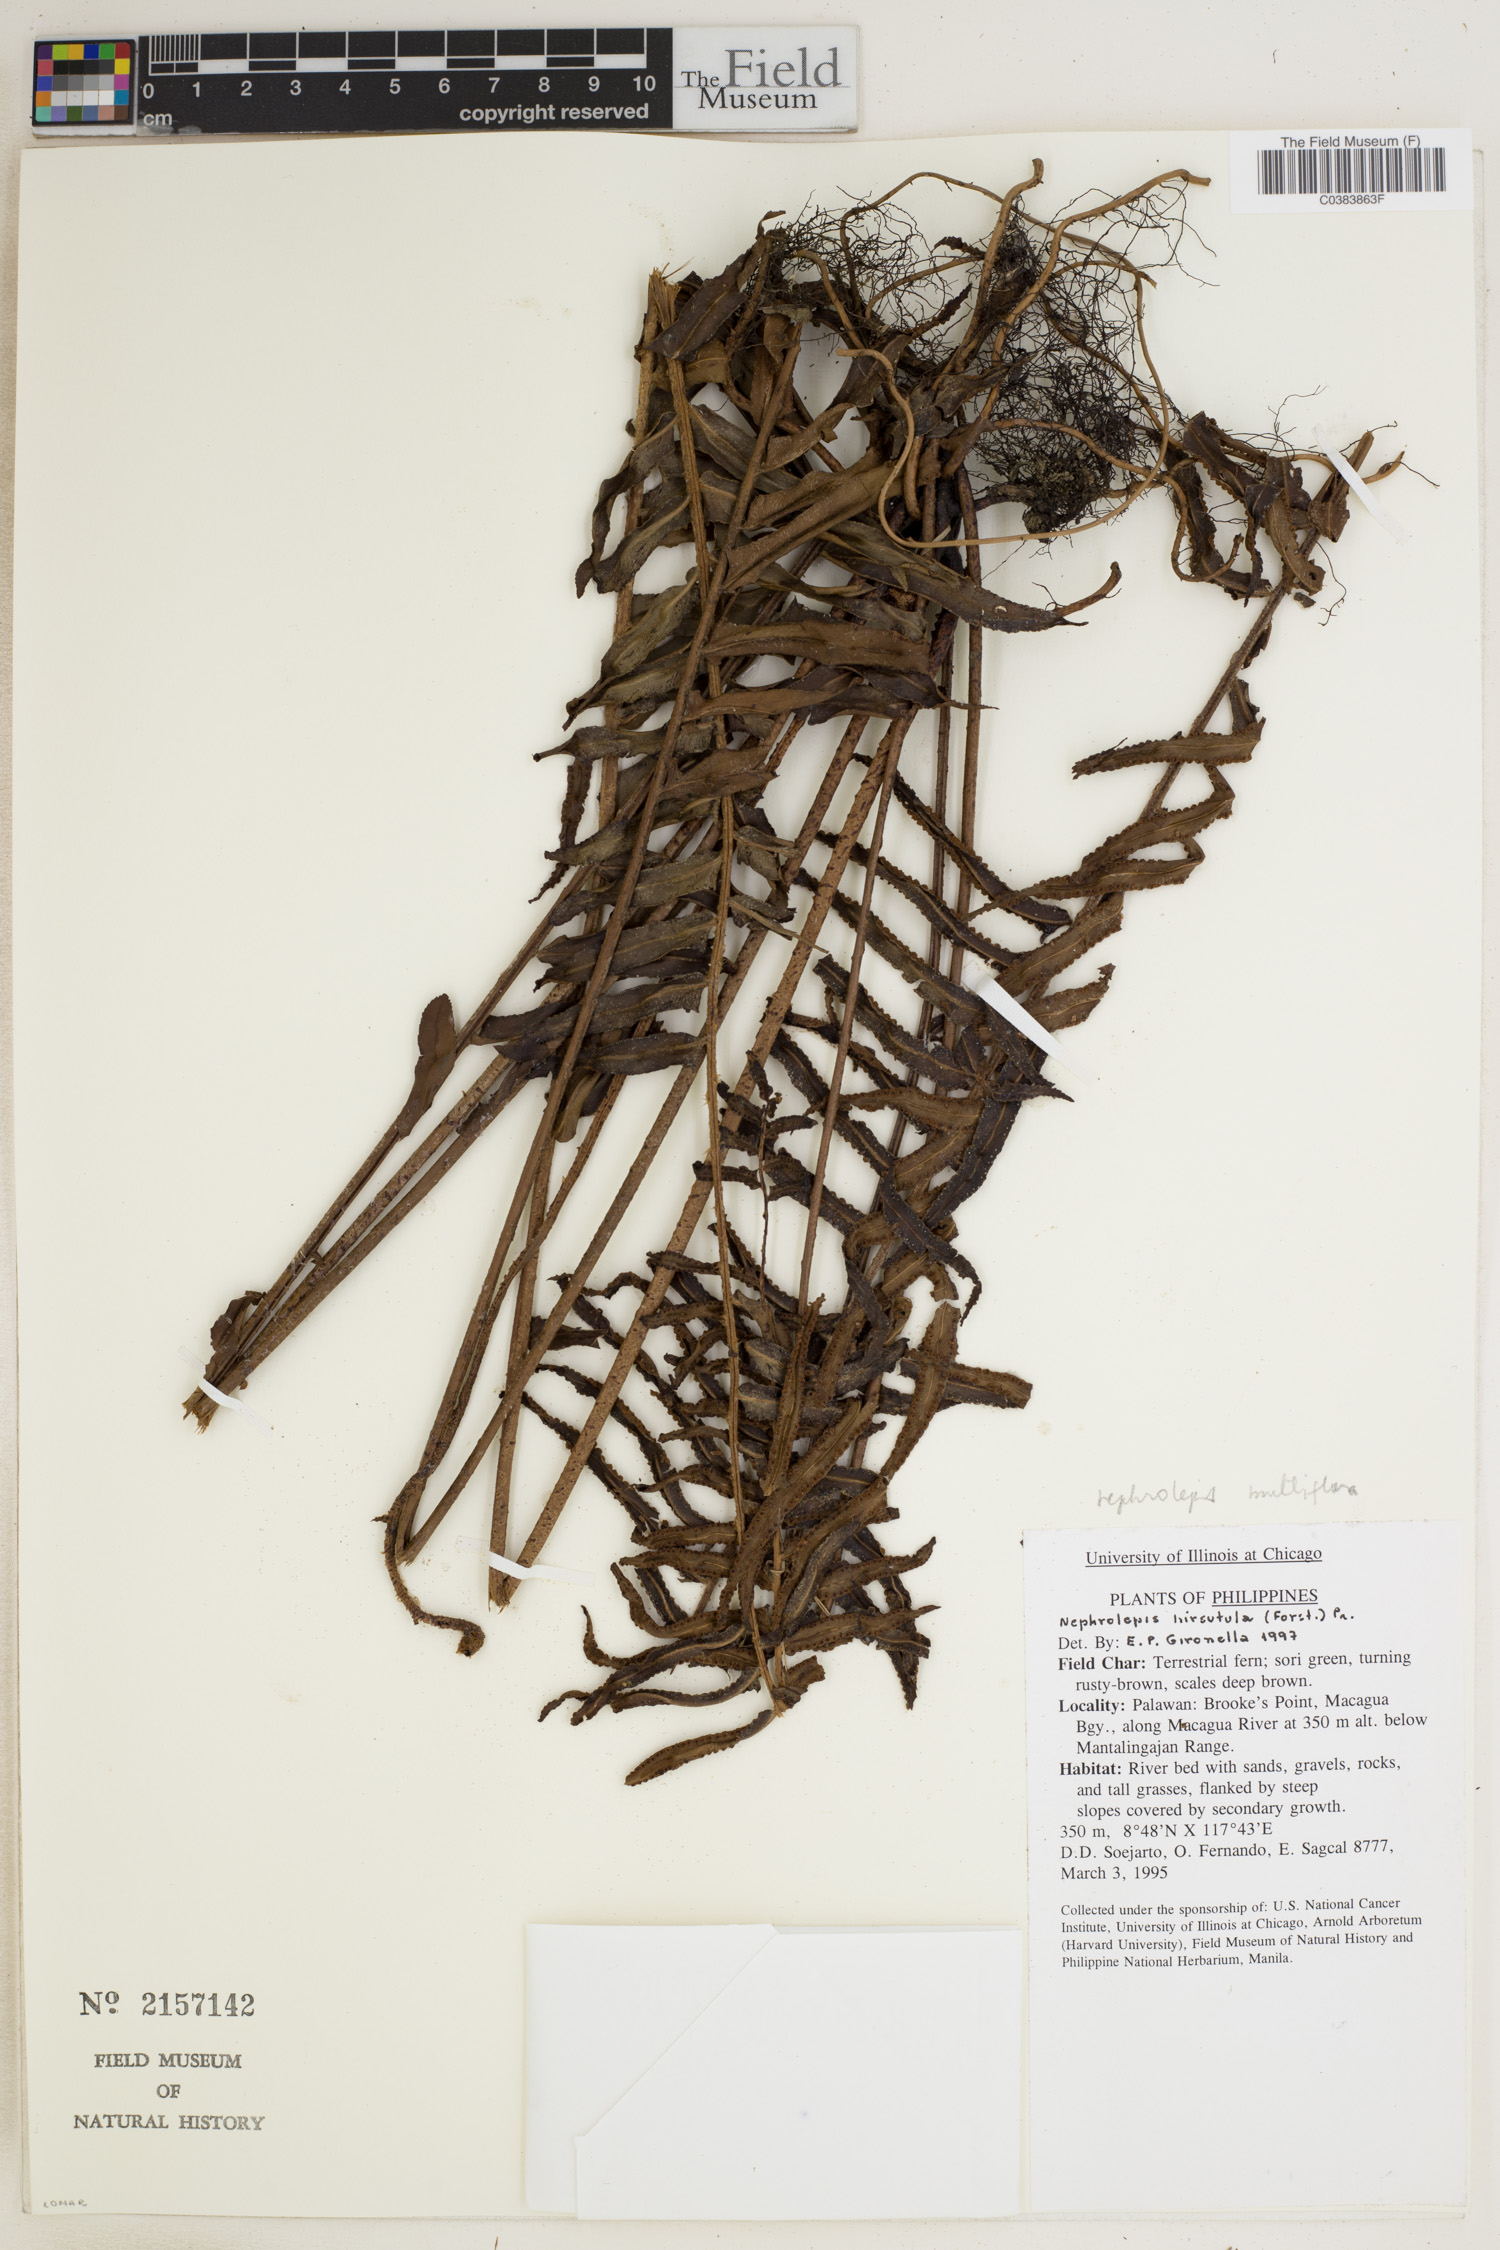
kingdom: Plantae
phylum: Tracheophyta
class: Polypodiopsida
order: Polypodiales
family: Nephrolepidaceae
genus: Nephrolepis
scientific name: Nephrolepis brownii
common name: Asian swordfern
